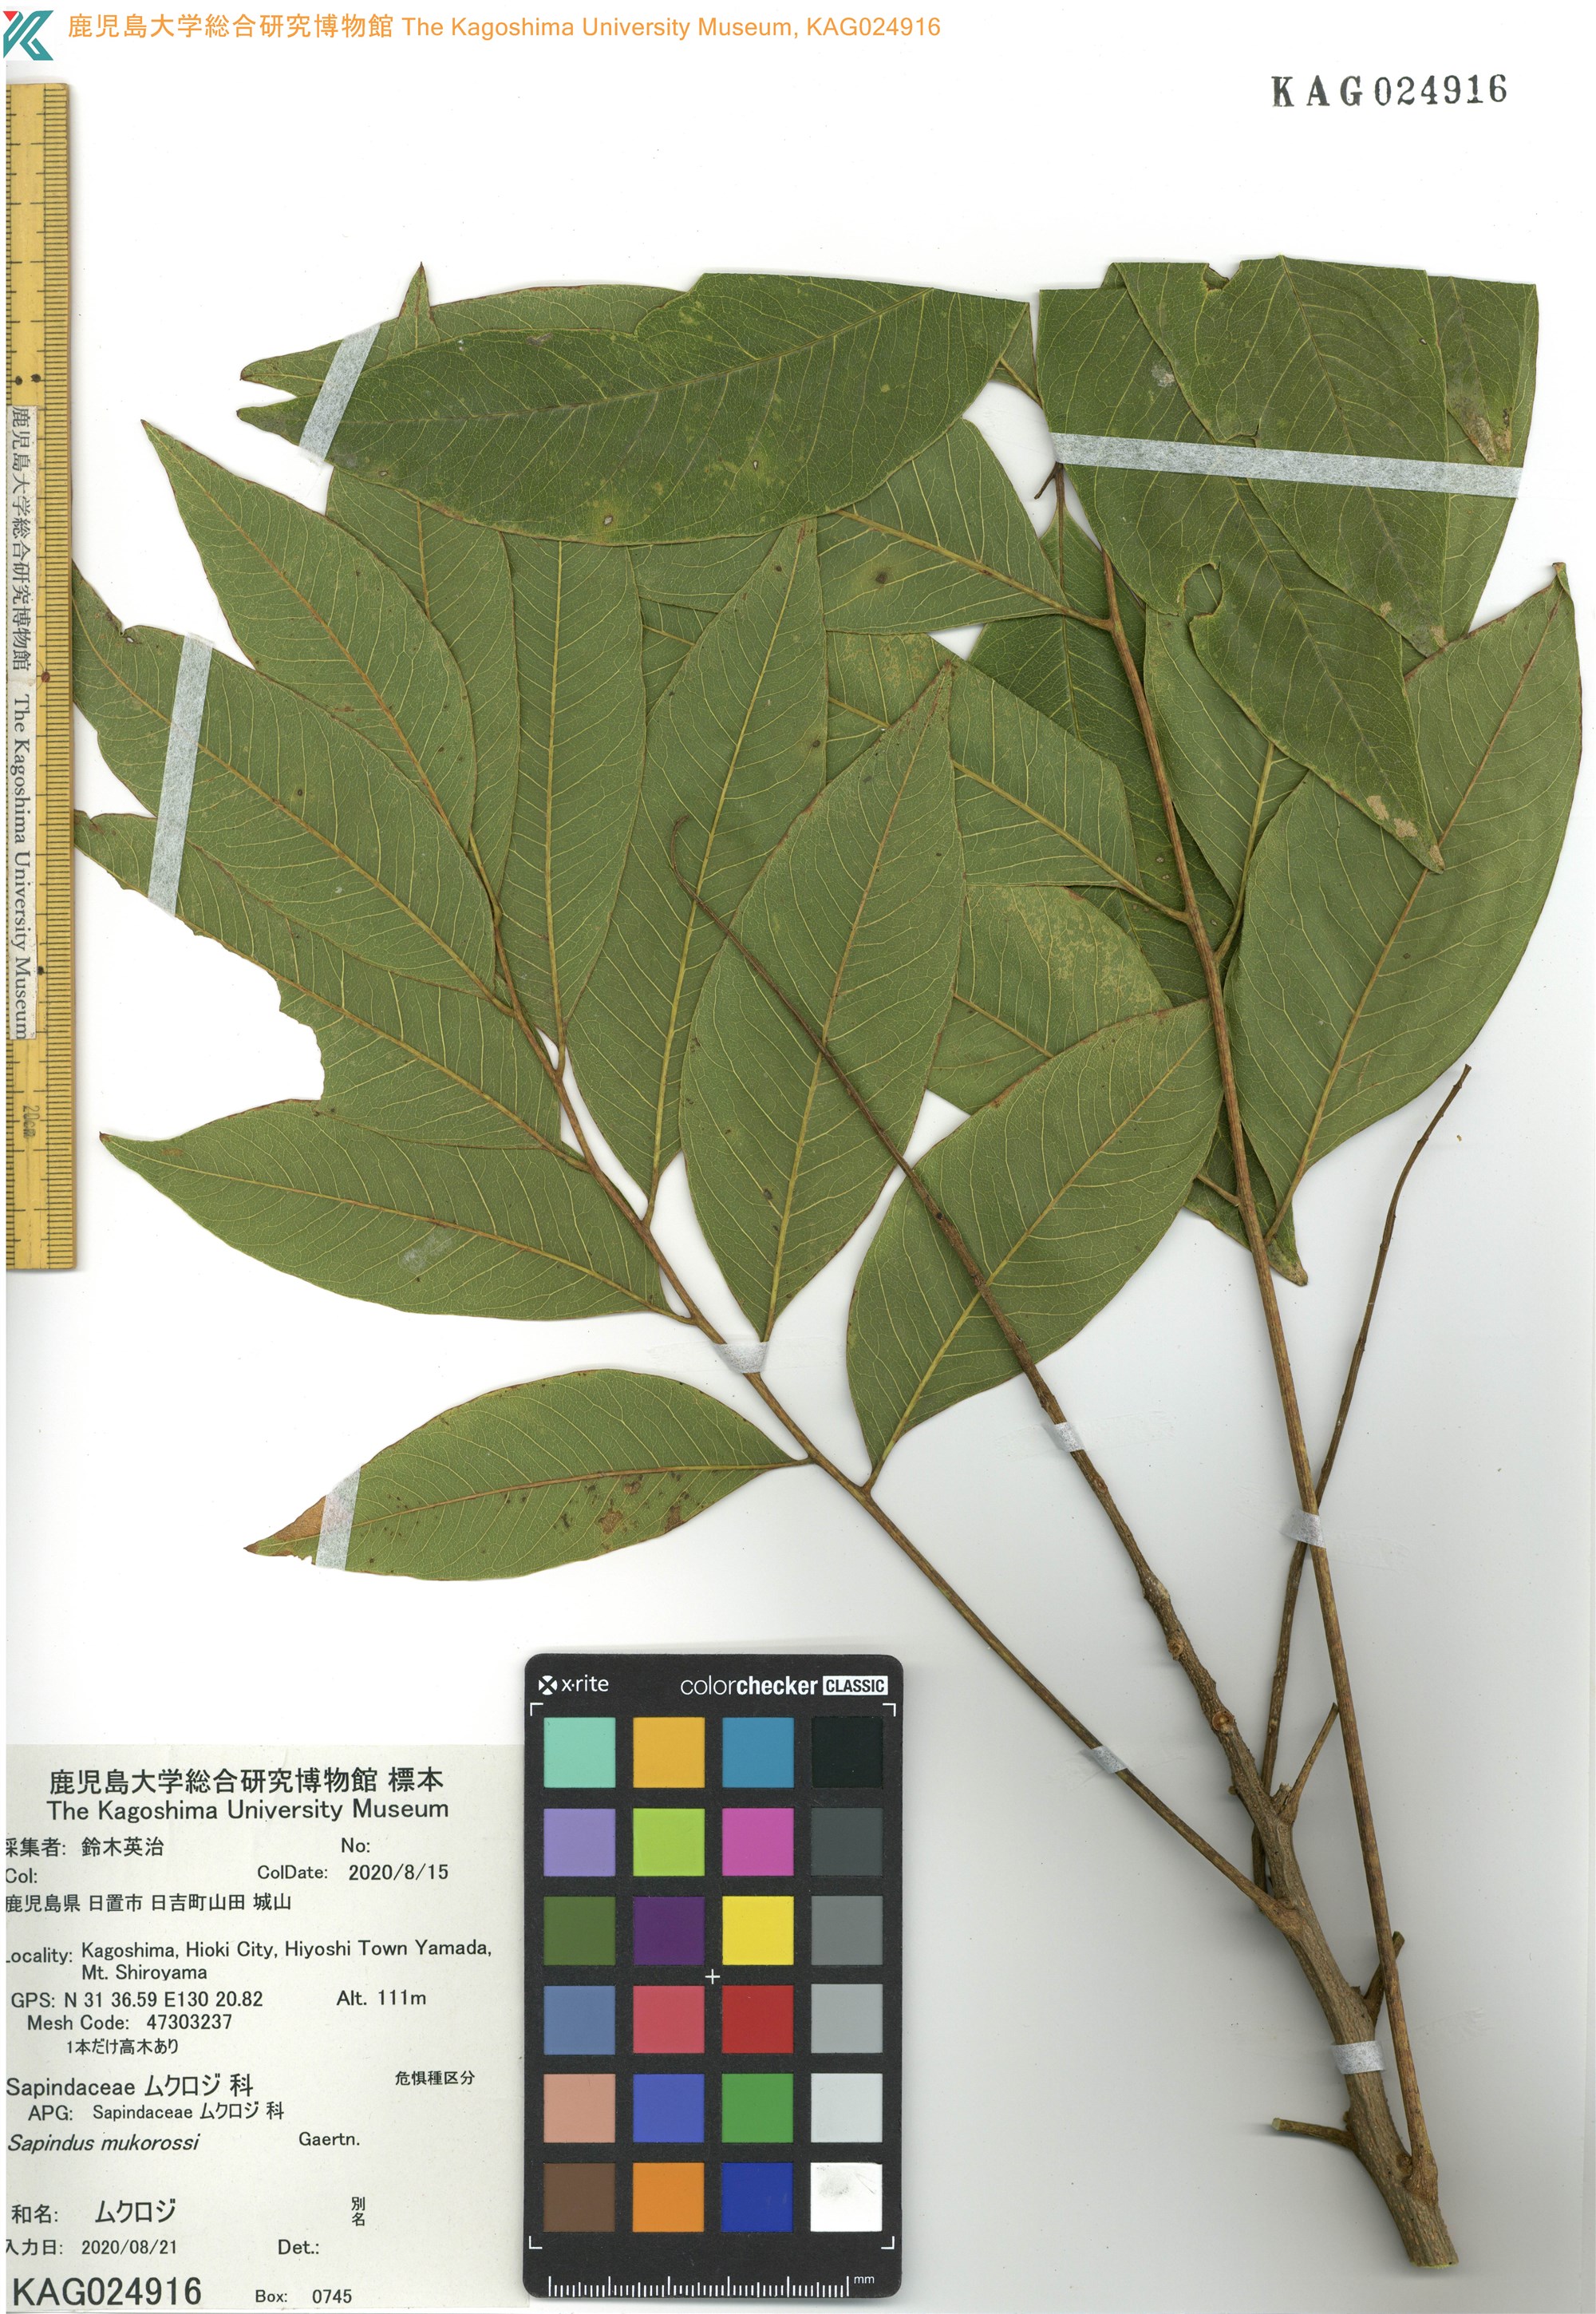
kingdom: Plantae
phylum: Tracheophyta
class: Magnoliopsida
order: Sapindales
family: Sapindaceae
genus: Sapindus
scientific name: Sapindus mukorossi
